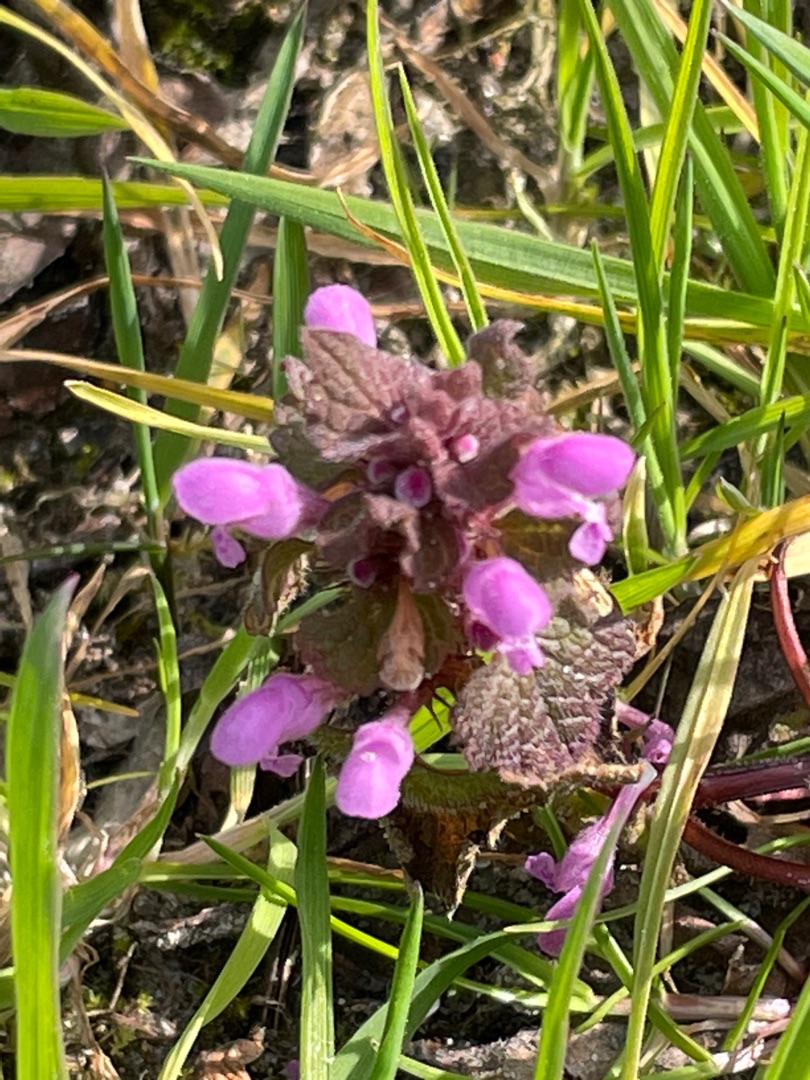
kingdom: Plantae
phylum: Tracheophyta
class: Magnoliopsida
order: Lamiales
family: Lamiaceae
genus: Lamium
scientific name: Lamium purpureum
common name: Rød tvetand
